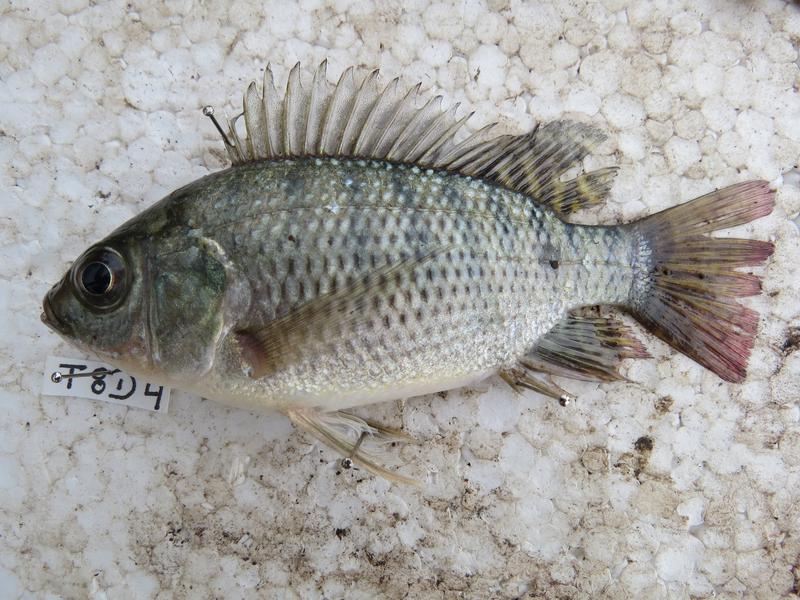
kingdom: Animalia
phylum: Chordata
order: Perciformes
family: Cichlidae
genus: Oreochromis
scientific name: Oreochromis niloticus
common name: Nile tilapia
